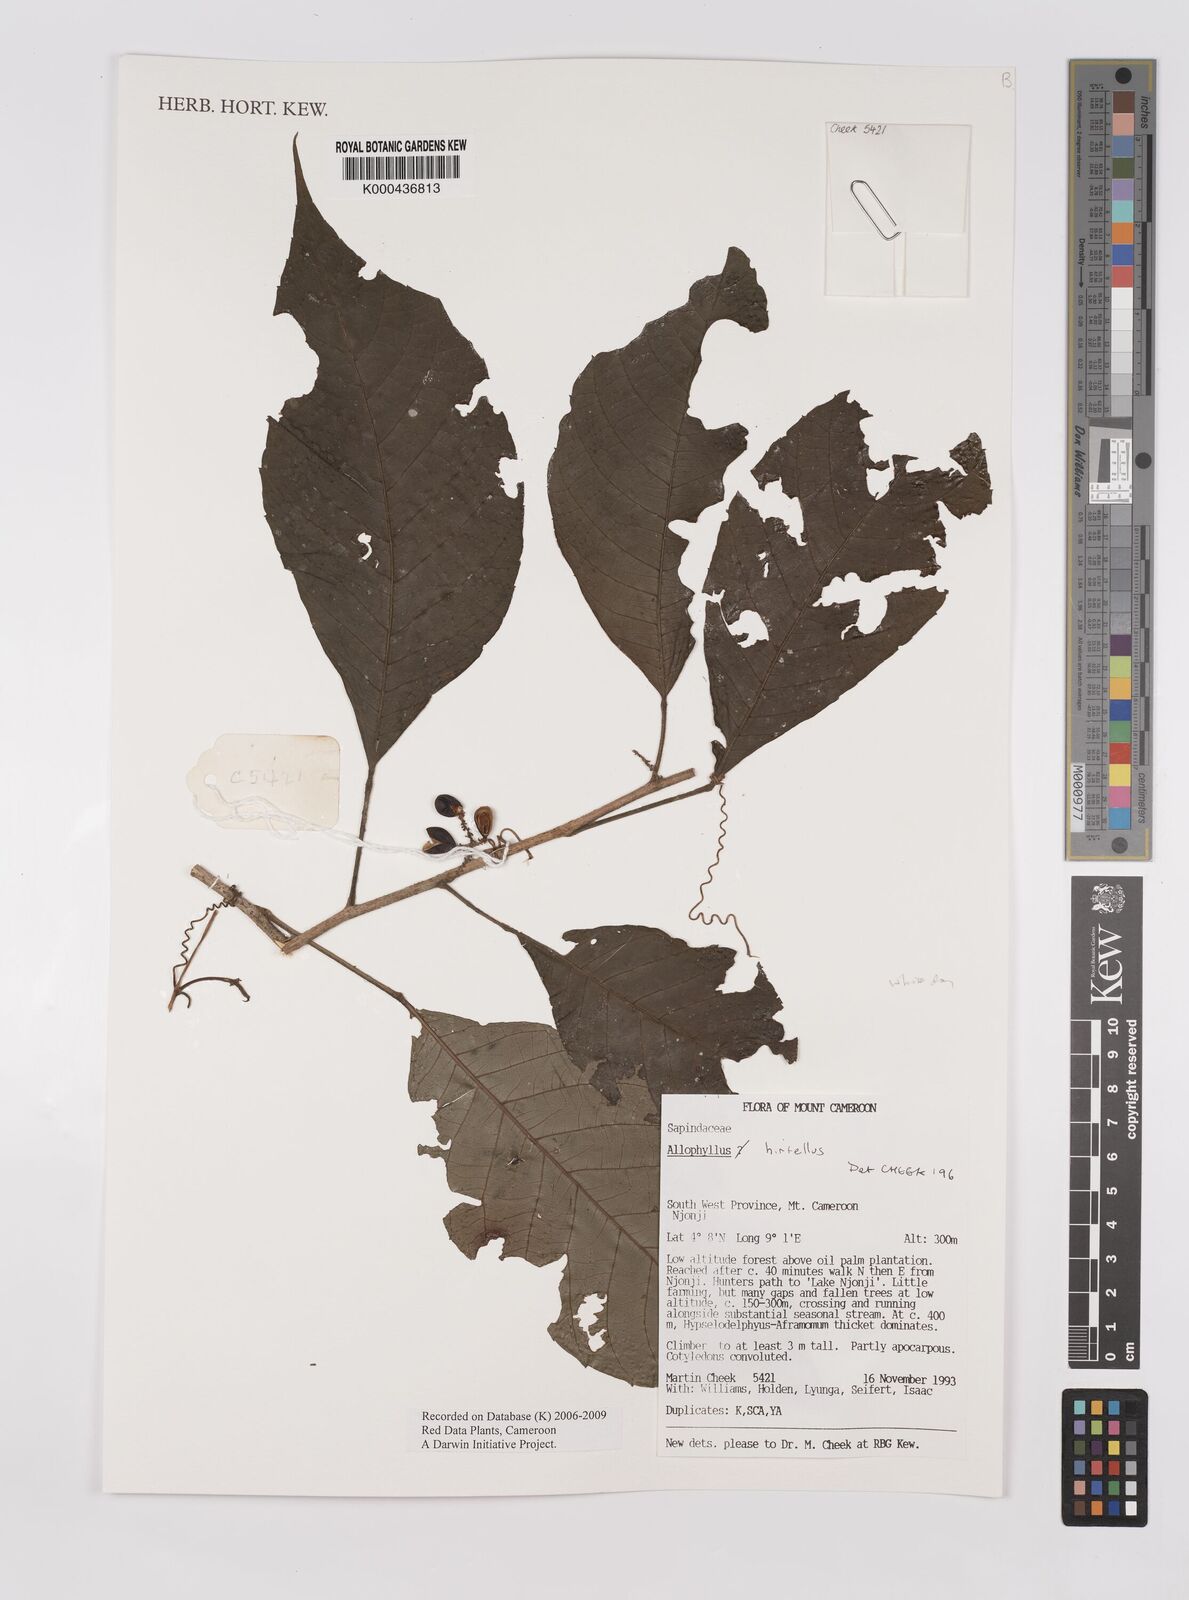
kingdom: Plantae
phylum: Tracheophyta
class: Magnoliopsida
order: Sapindales
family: Sapindaceae
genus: Allophylus
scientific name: Allophylus hirtellus
